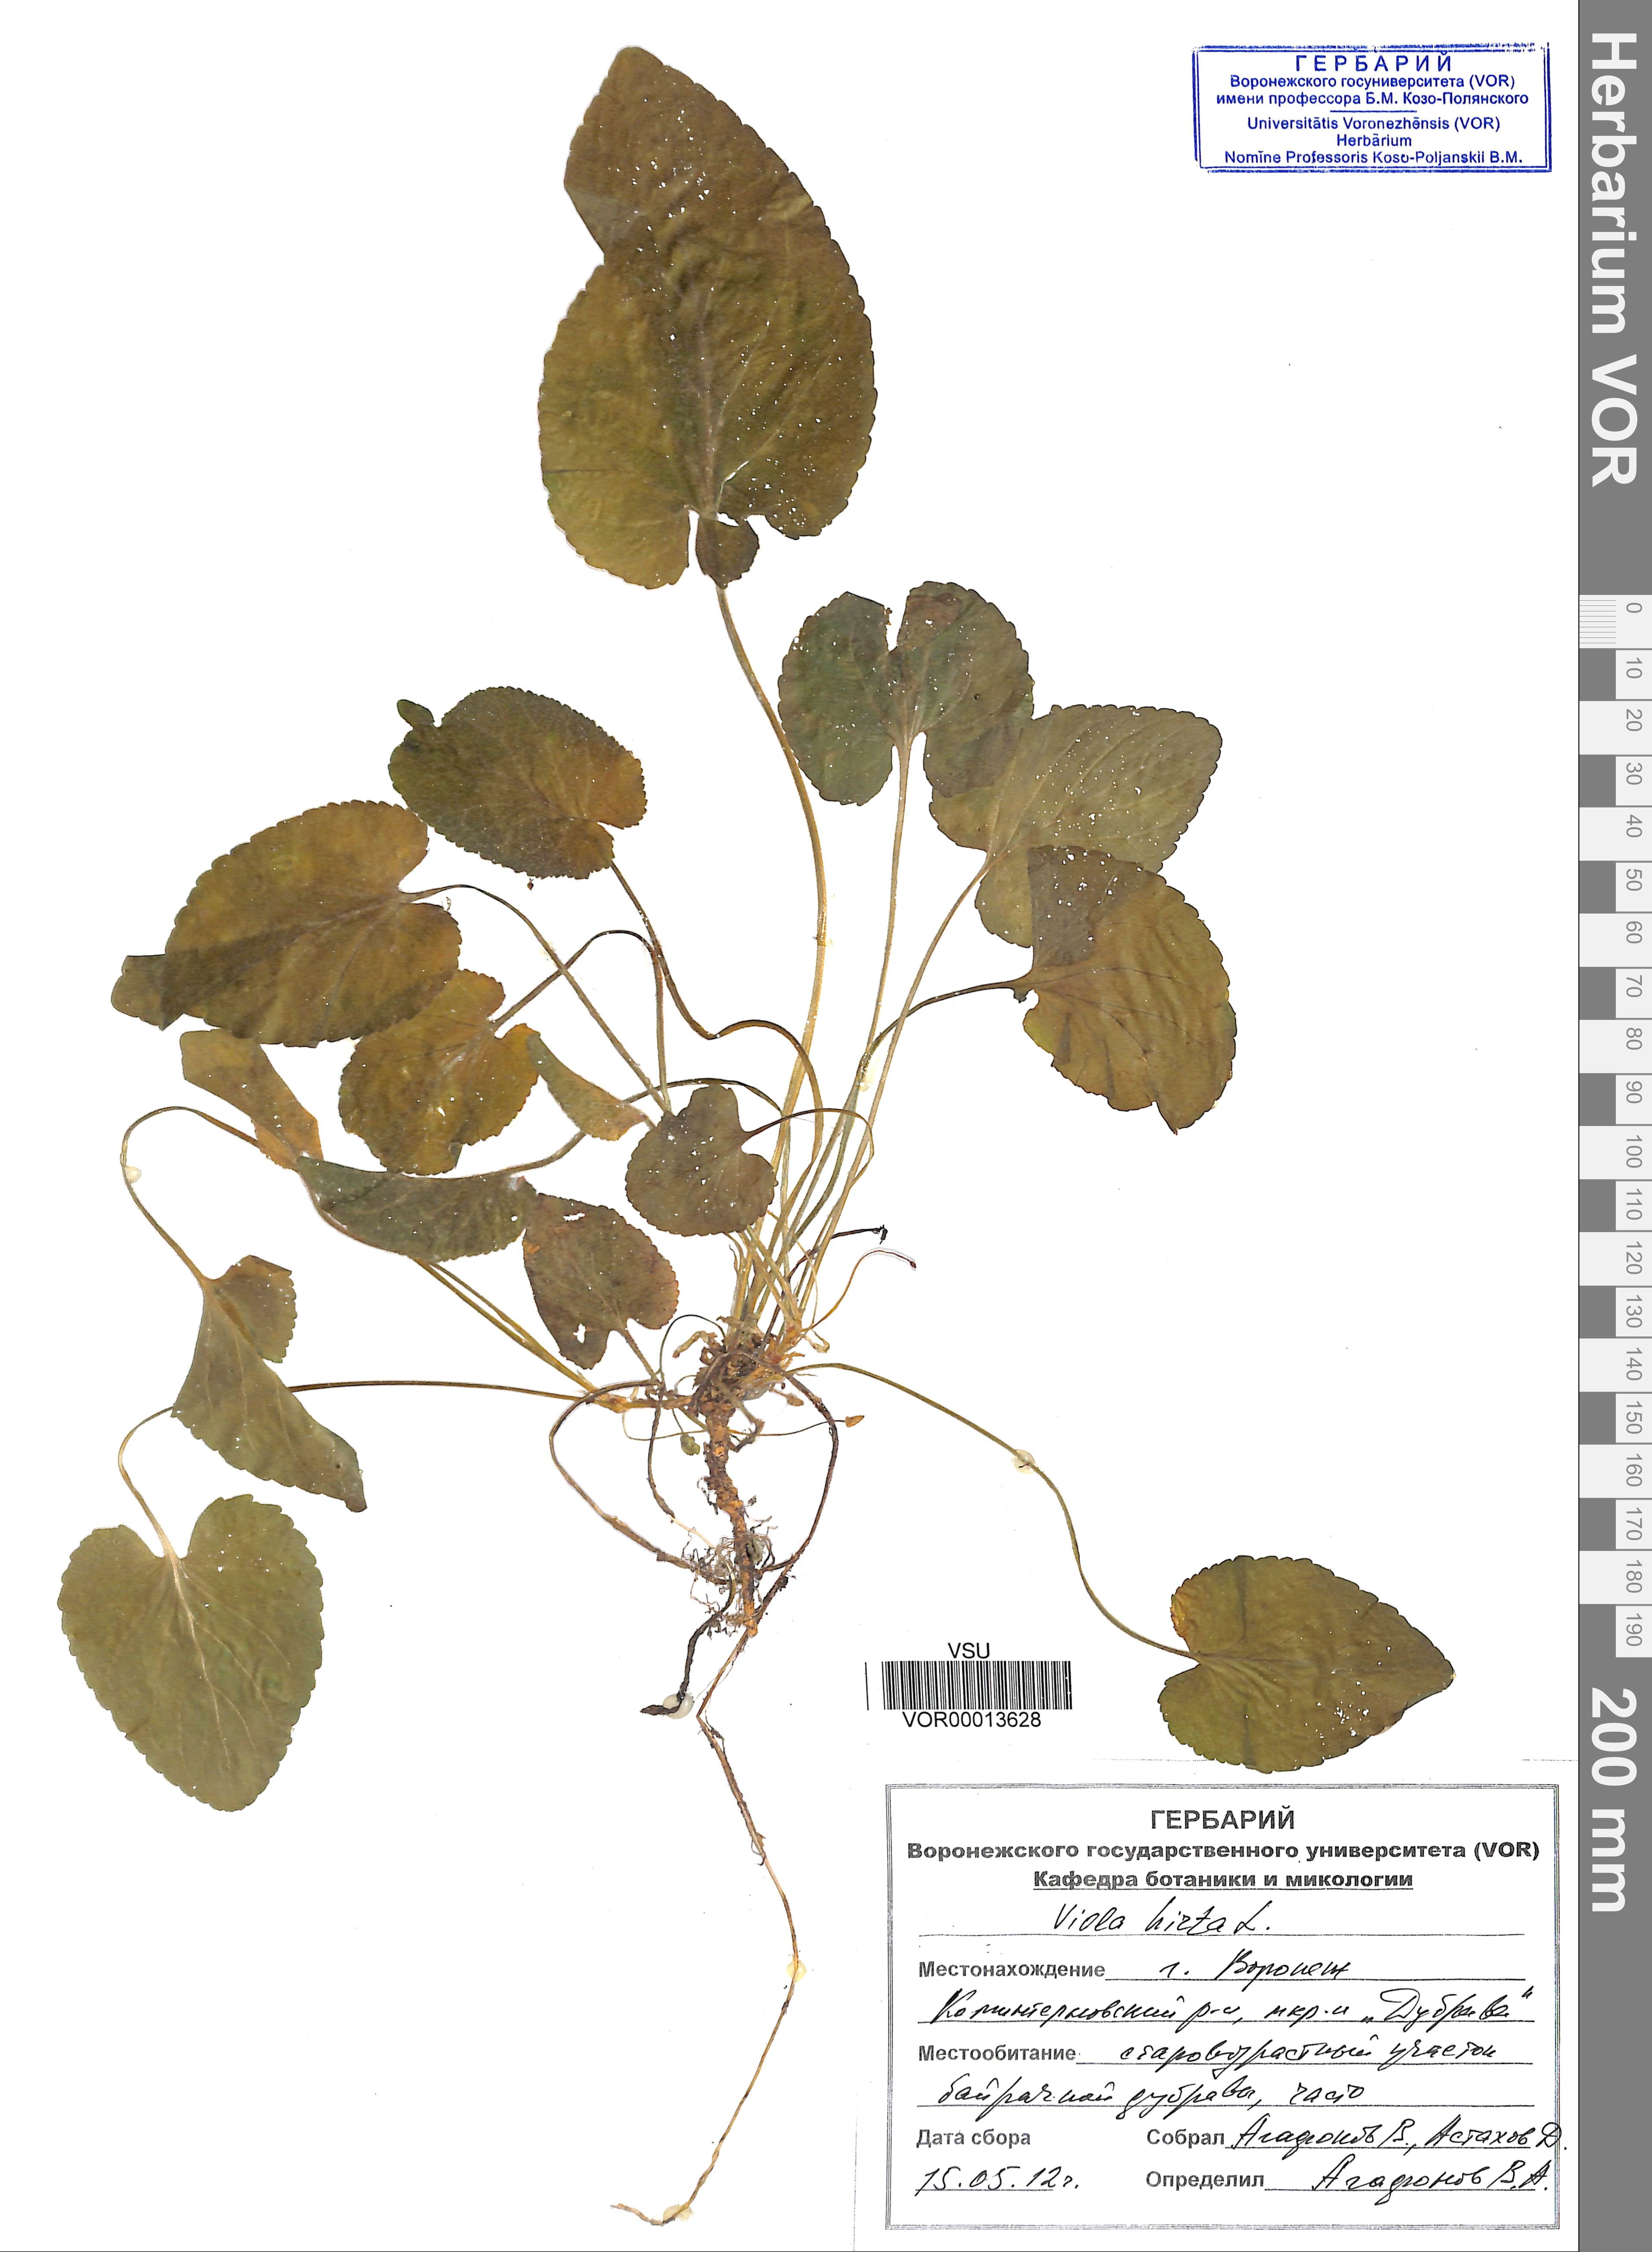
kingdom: Plantae
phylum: Tracheophyta
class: Magnoliopsida
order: Malpighiales
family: Violaceae
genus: Viola
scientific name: Viola hirta
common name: Hairy violet
